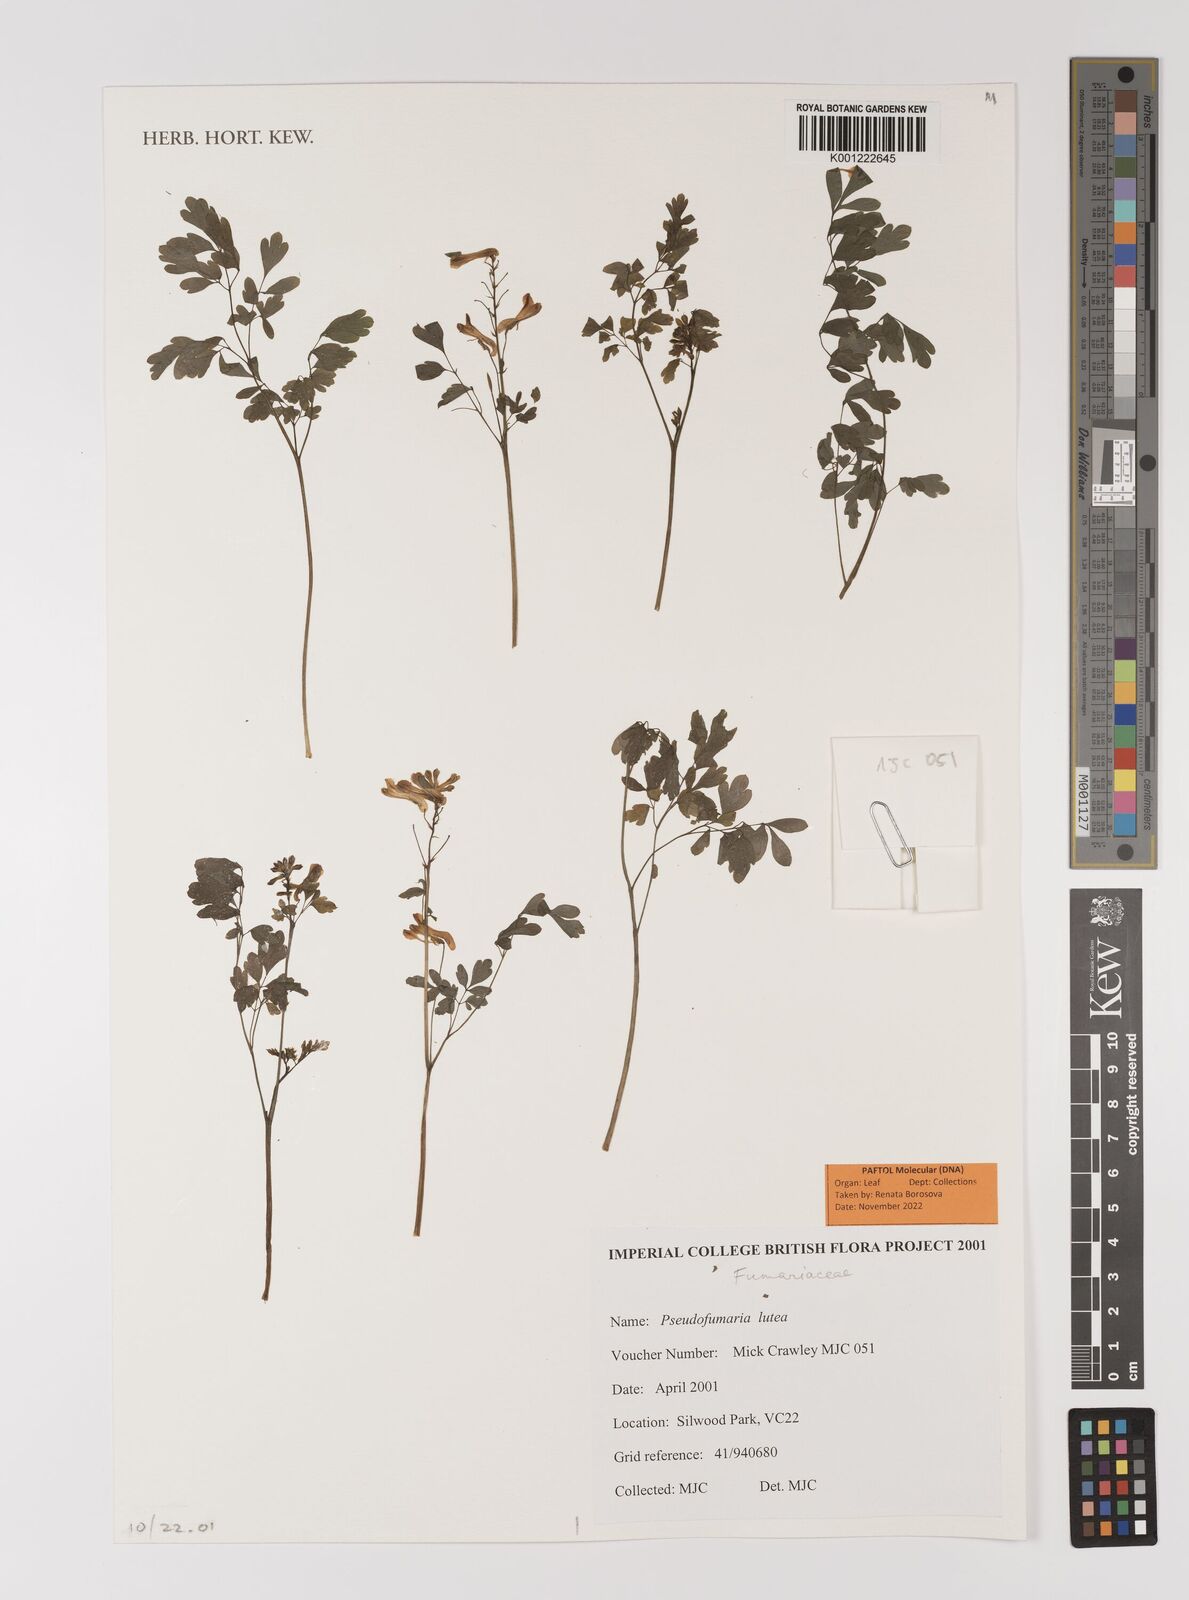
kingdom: Plantae
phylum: Tracheophyta
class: Magnoliopsida
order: Ranunculales
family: Papaveraceae
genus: Pseudofumaria
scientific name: Pseudofumaria lutea
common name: Yellow corydalis
